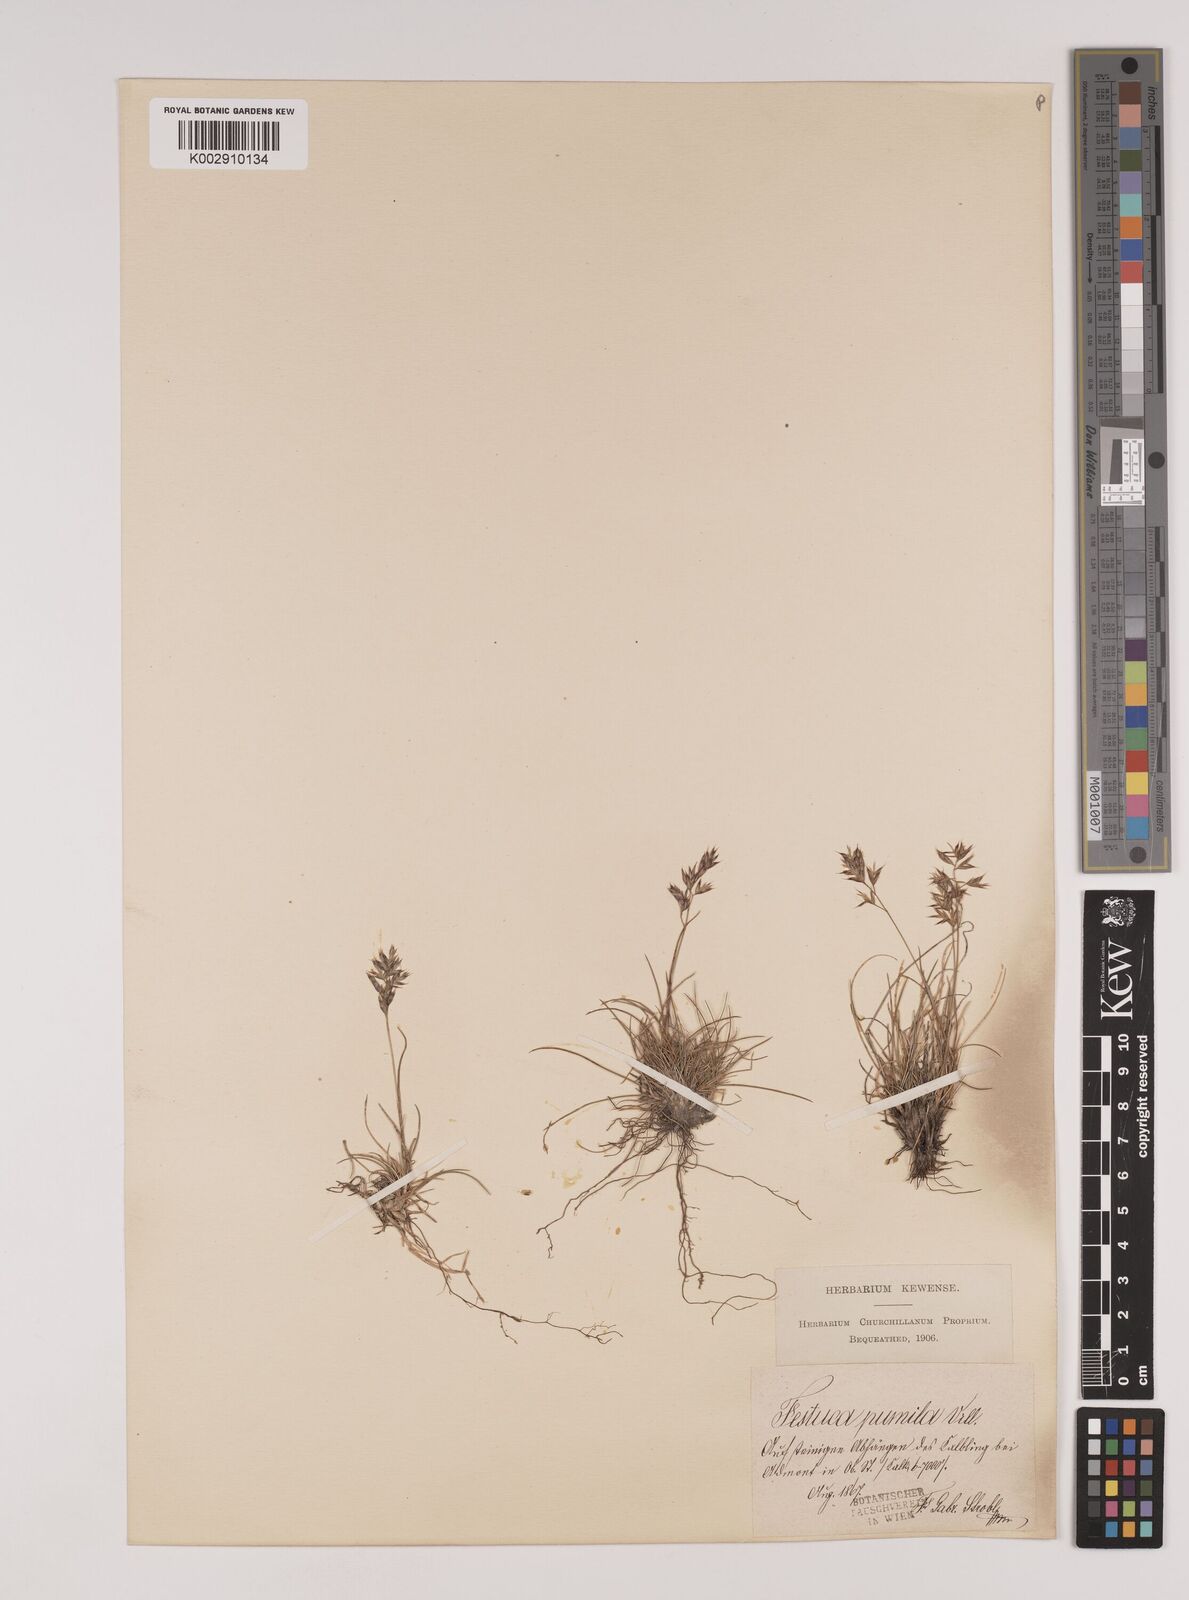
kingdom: Plantae
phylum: Tracheophyta
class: Liliopsida
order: Poales
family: Poaceae
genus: Festuca
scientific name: Festuca
